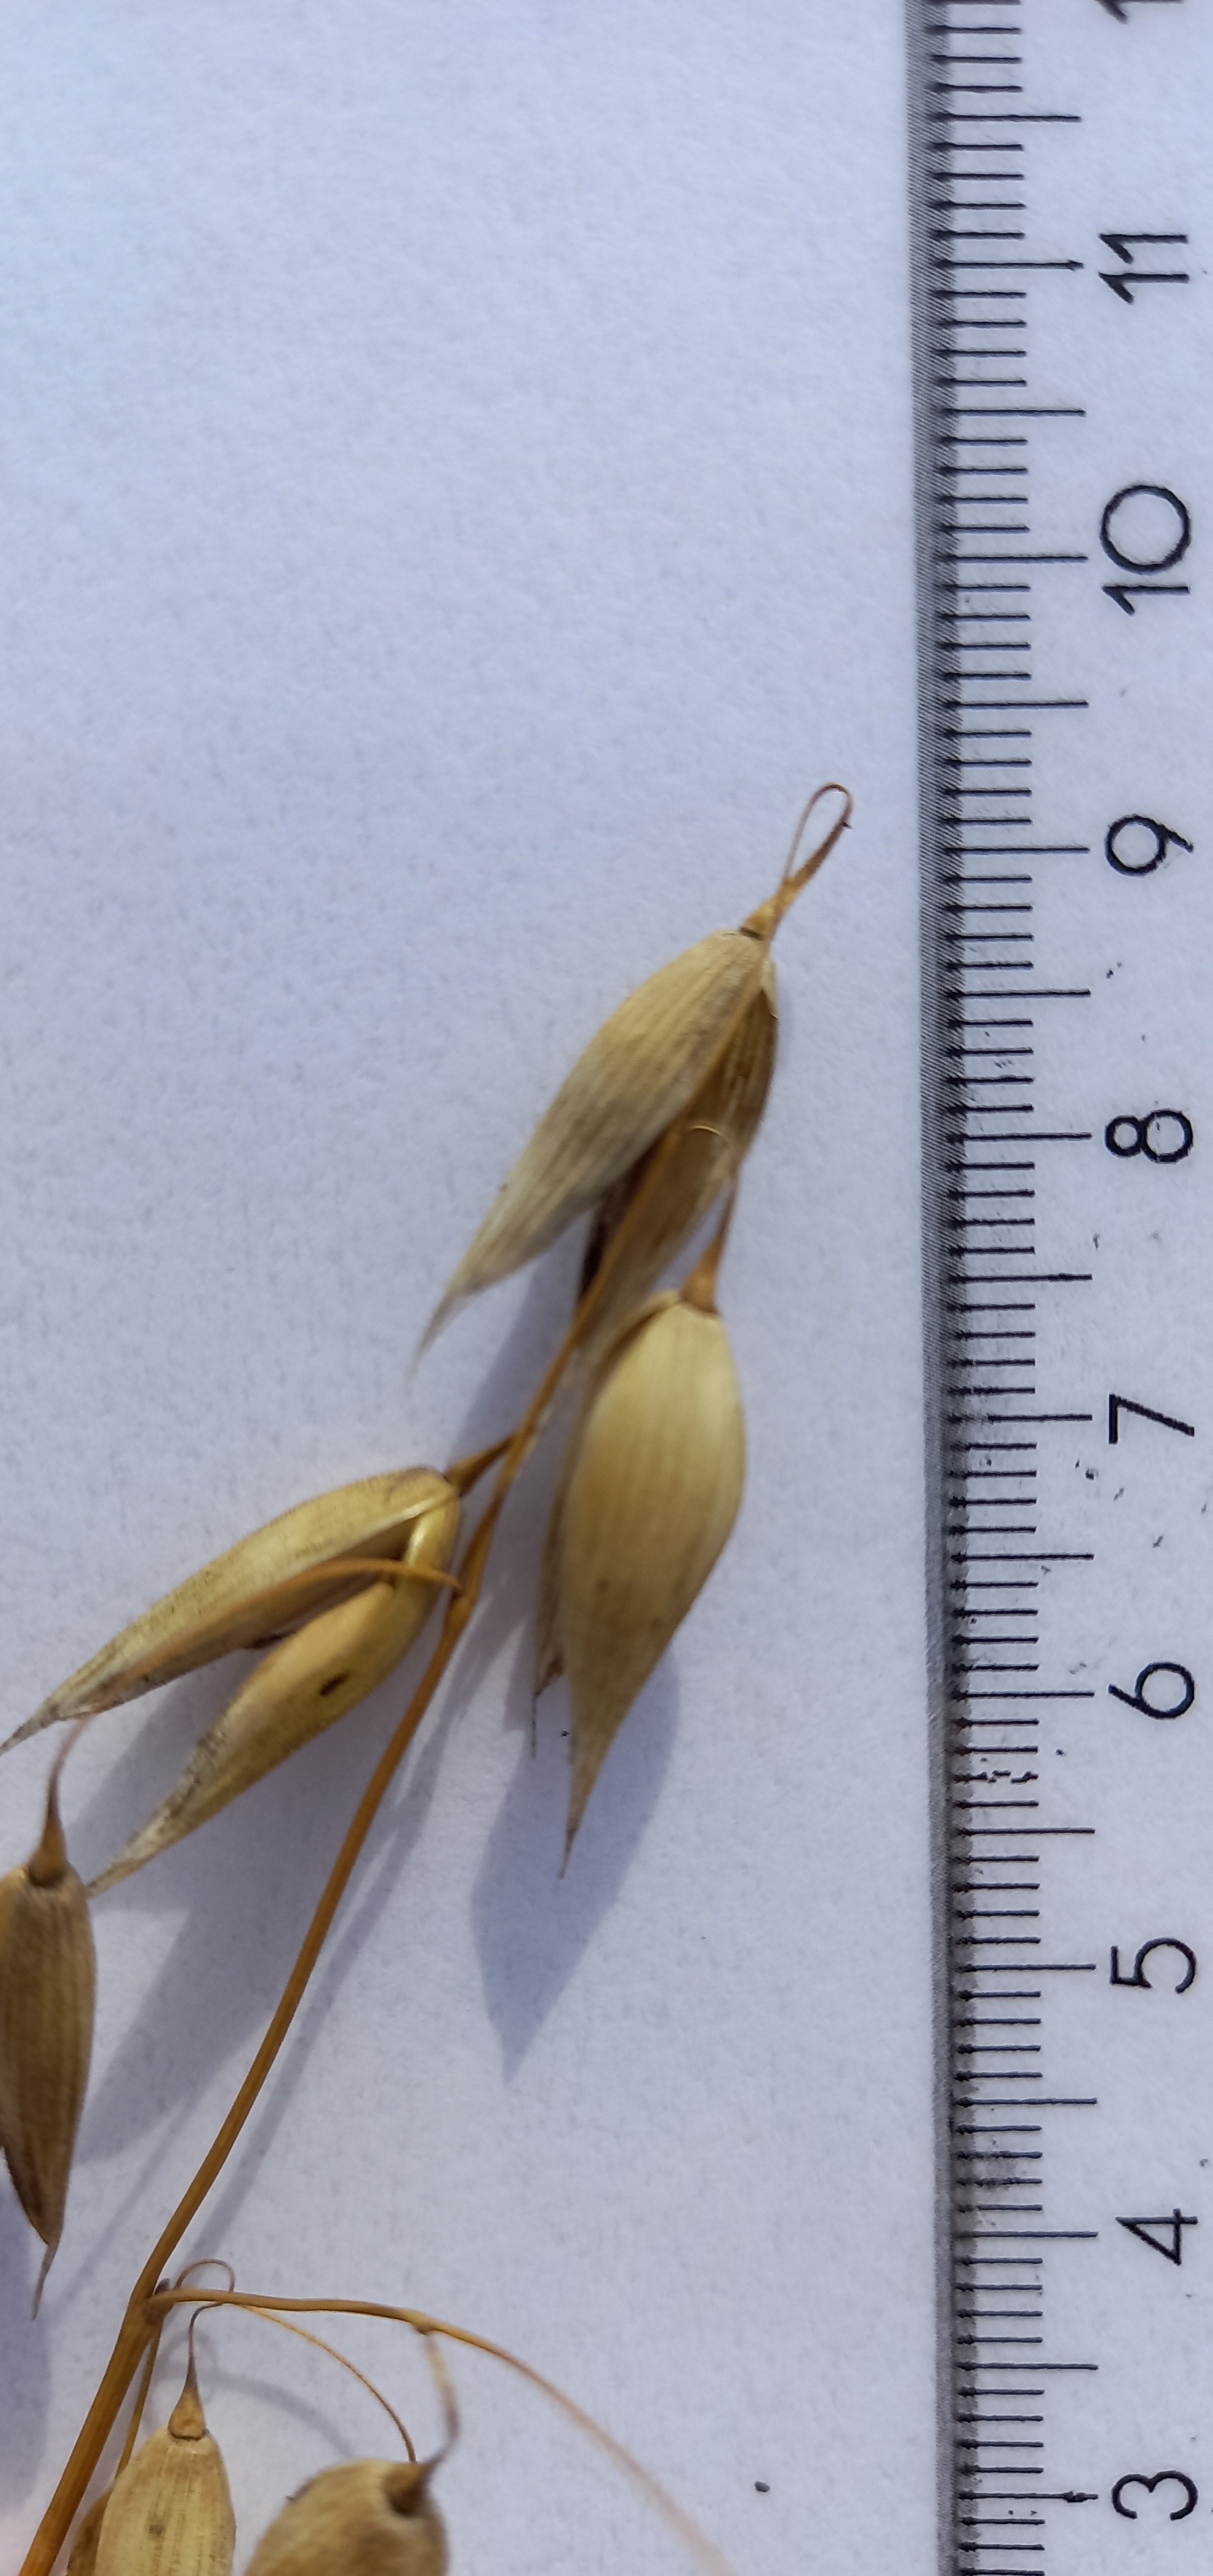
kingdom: Plantae
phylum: Tracheophyta
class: Liliopsida
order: Poales
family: Poaceae
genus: Avena
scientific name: Avena sativa
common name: Oat
